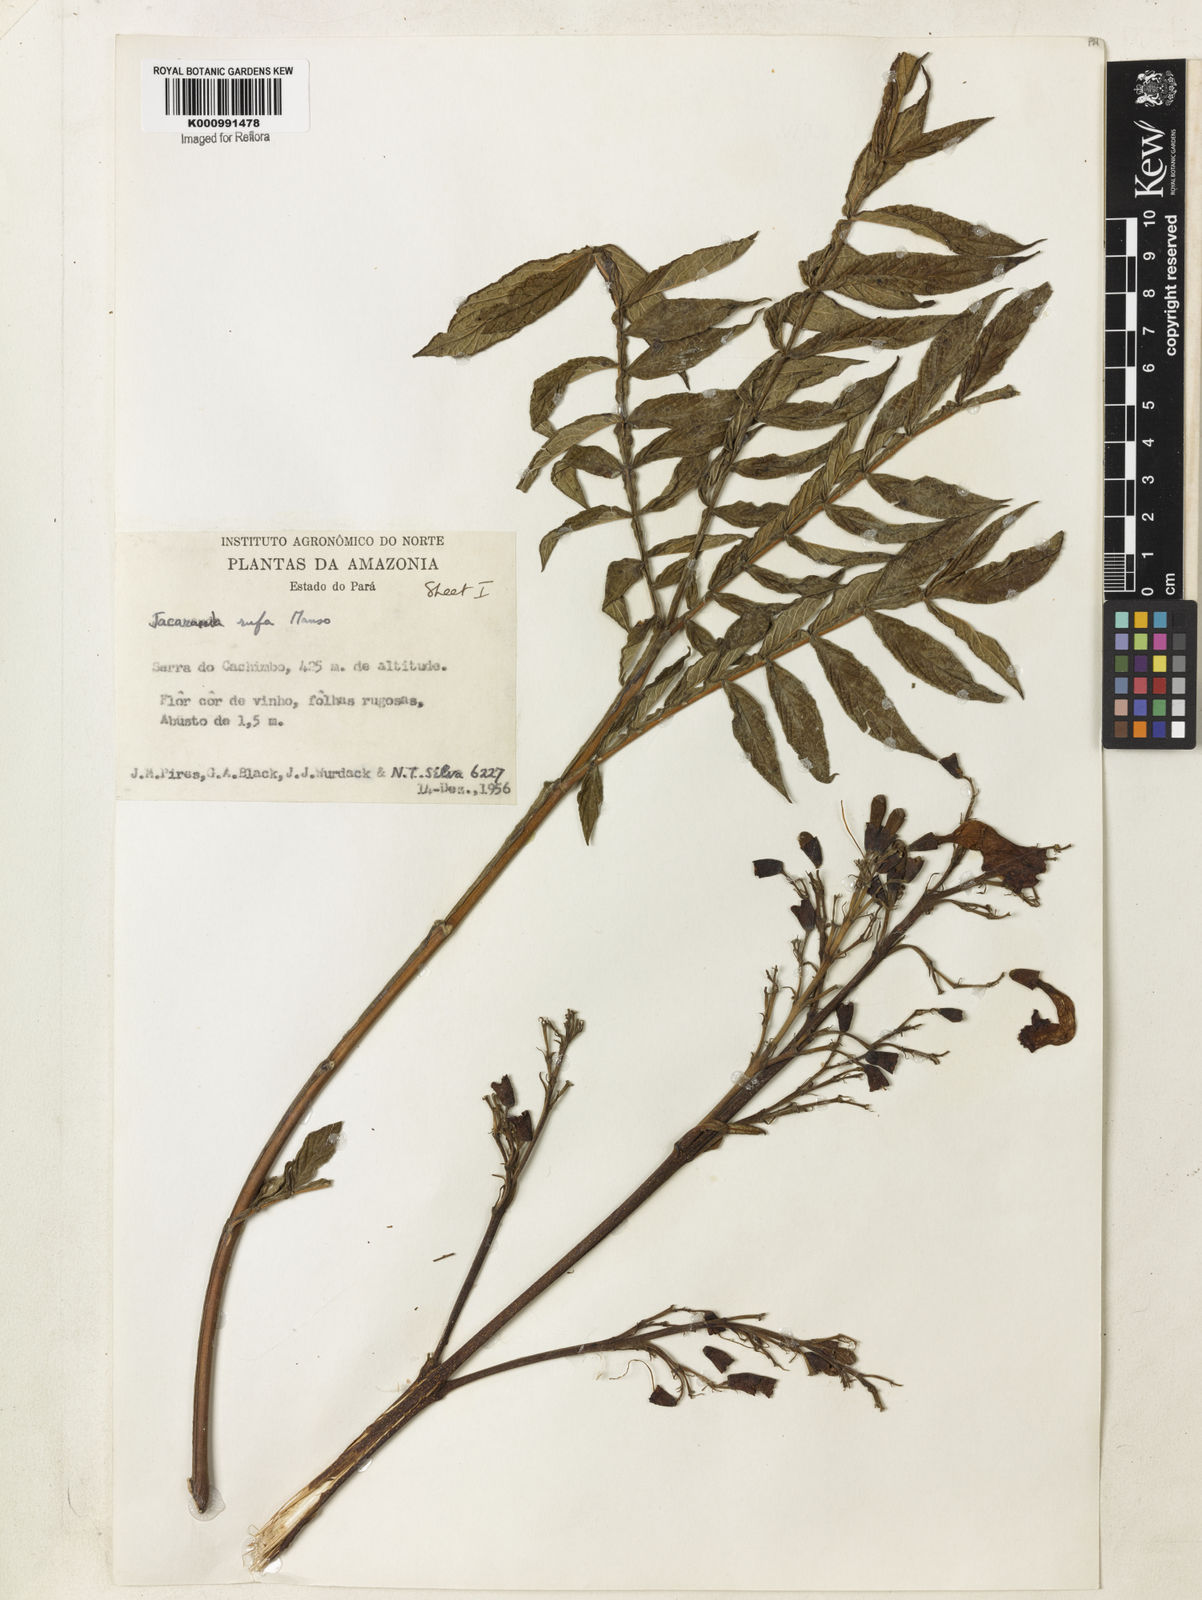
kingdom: Plantae
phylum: Tracheophyta
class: Magnoliopsida
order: Lamiales
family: Bignoniaceae
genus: Jacaranda
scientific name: Jacaranda rufa
